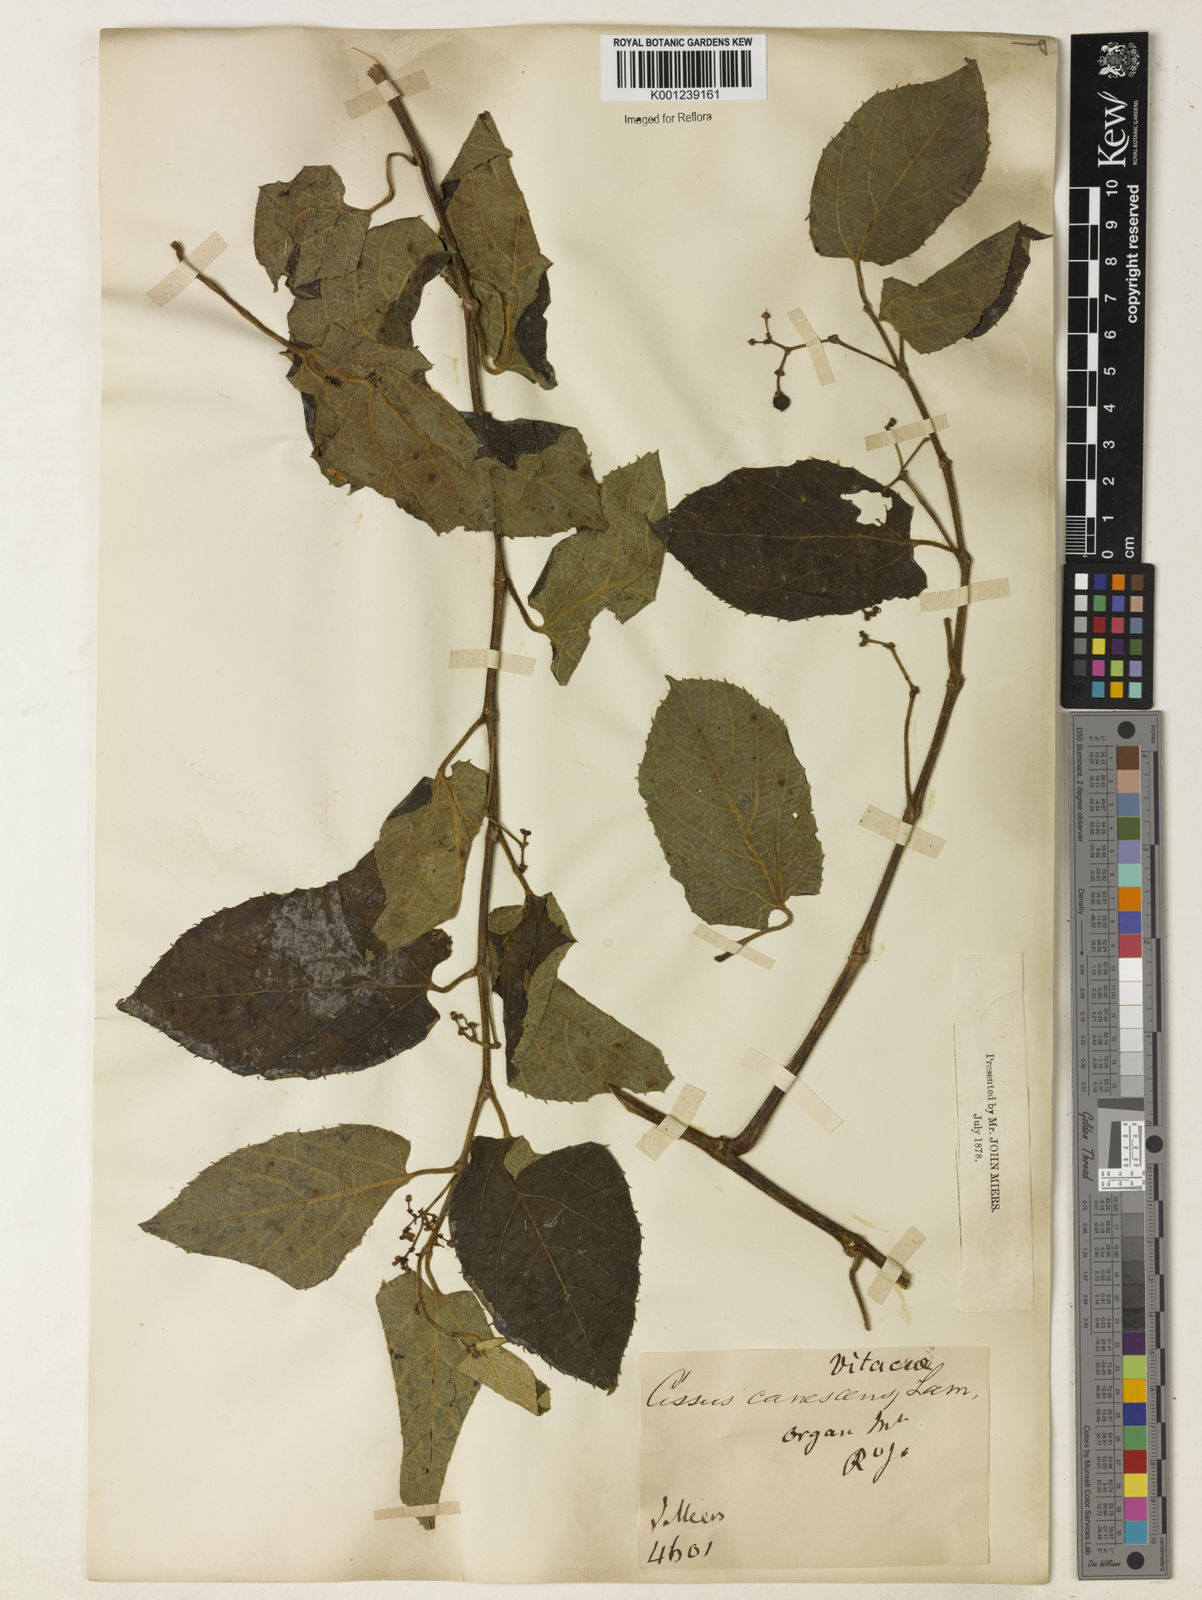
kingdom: Plantae
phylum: Tracheophyta
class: Magnoliopsida
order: Vitales
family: Vitaceae
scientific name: Vitaceae
